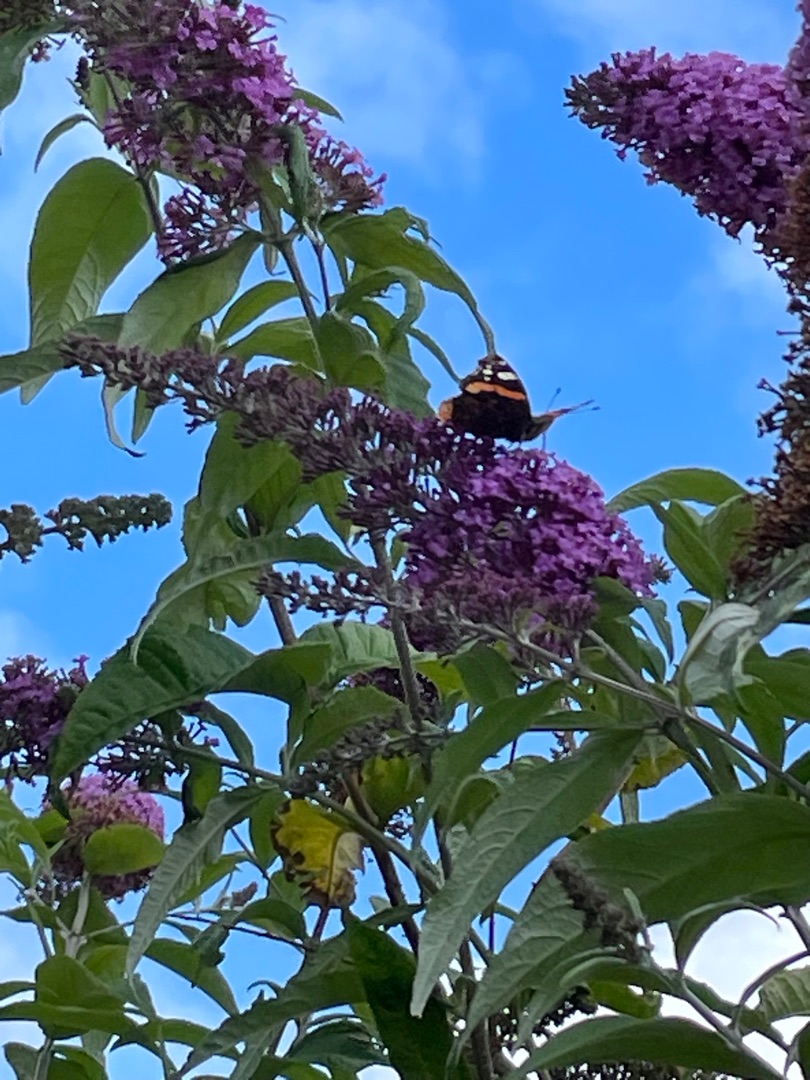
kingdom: Animalia
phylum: Arthropoda
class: Insecta
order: Lepidoptera
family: Nymphalidae
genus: Vanessa
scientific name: Vanessa atalanta
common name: Admiral
